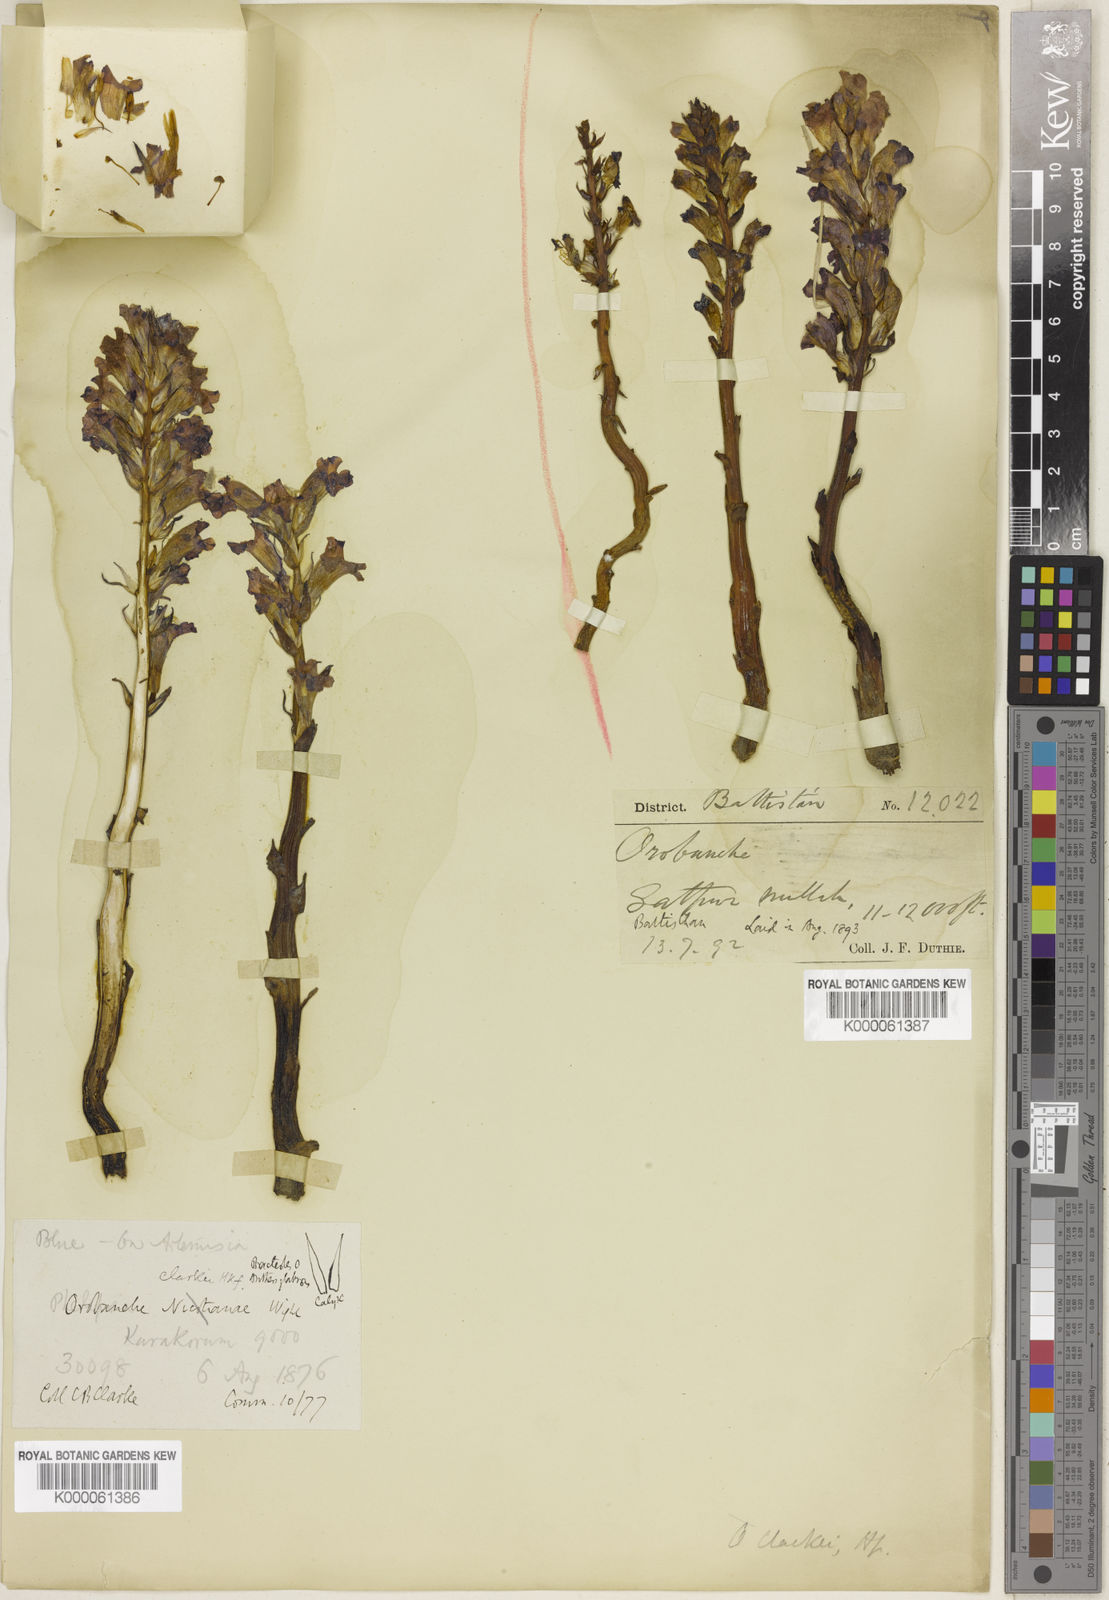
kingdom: Plantae
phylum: Tracheophyta
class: Magnoliopsida
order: Lamiales
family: Orobanchaceae
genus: Orobanche
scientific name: Orobanche clarkei
